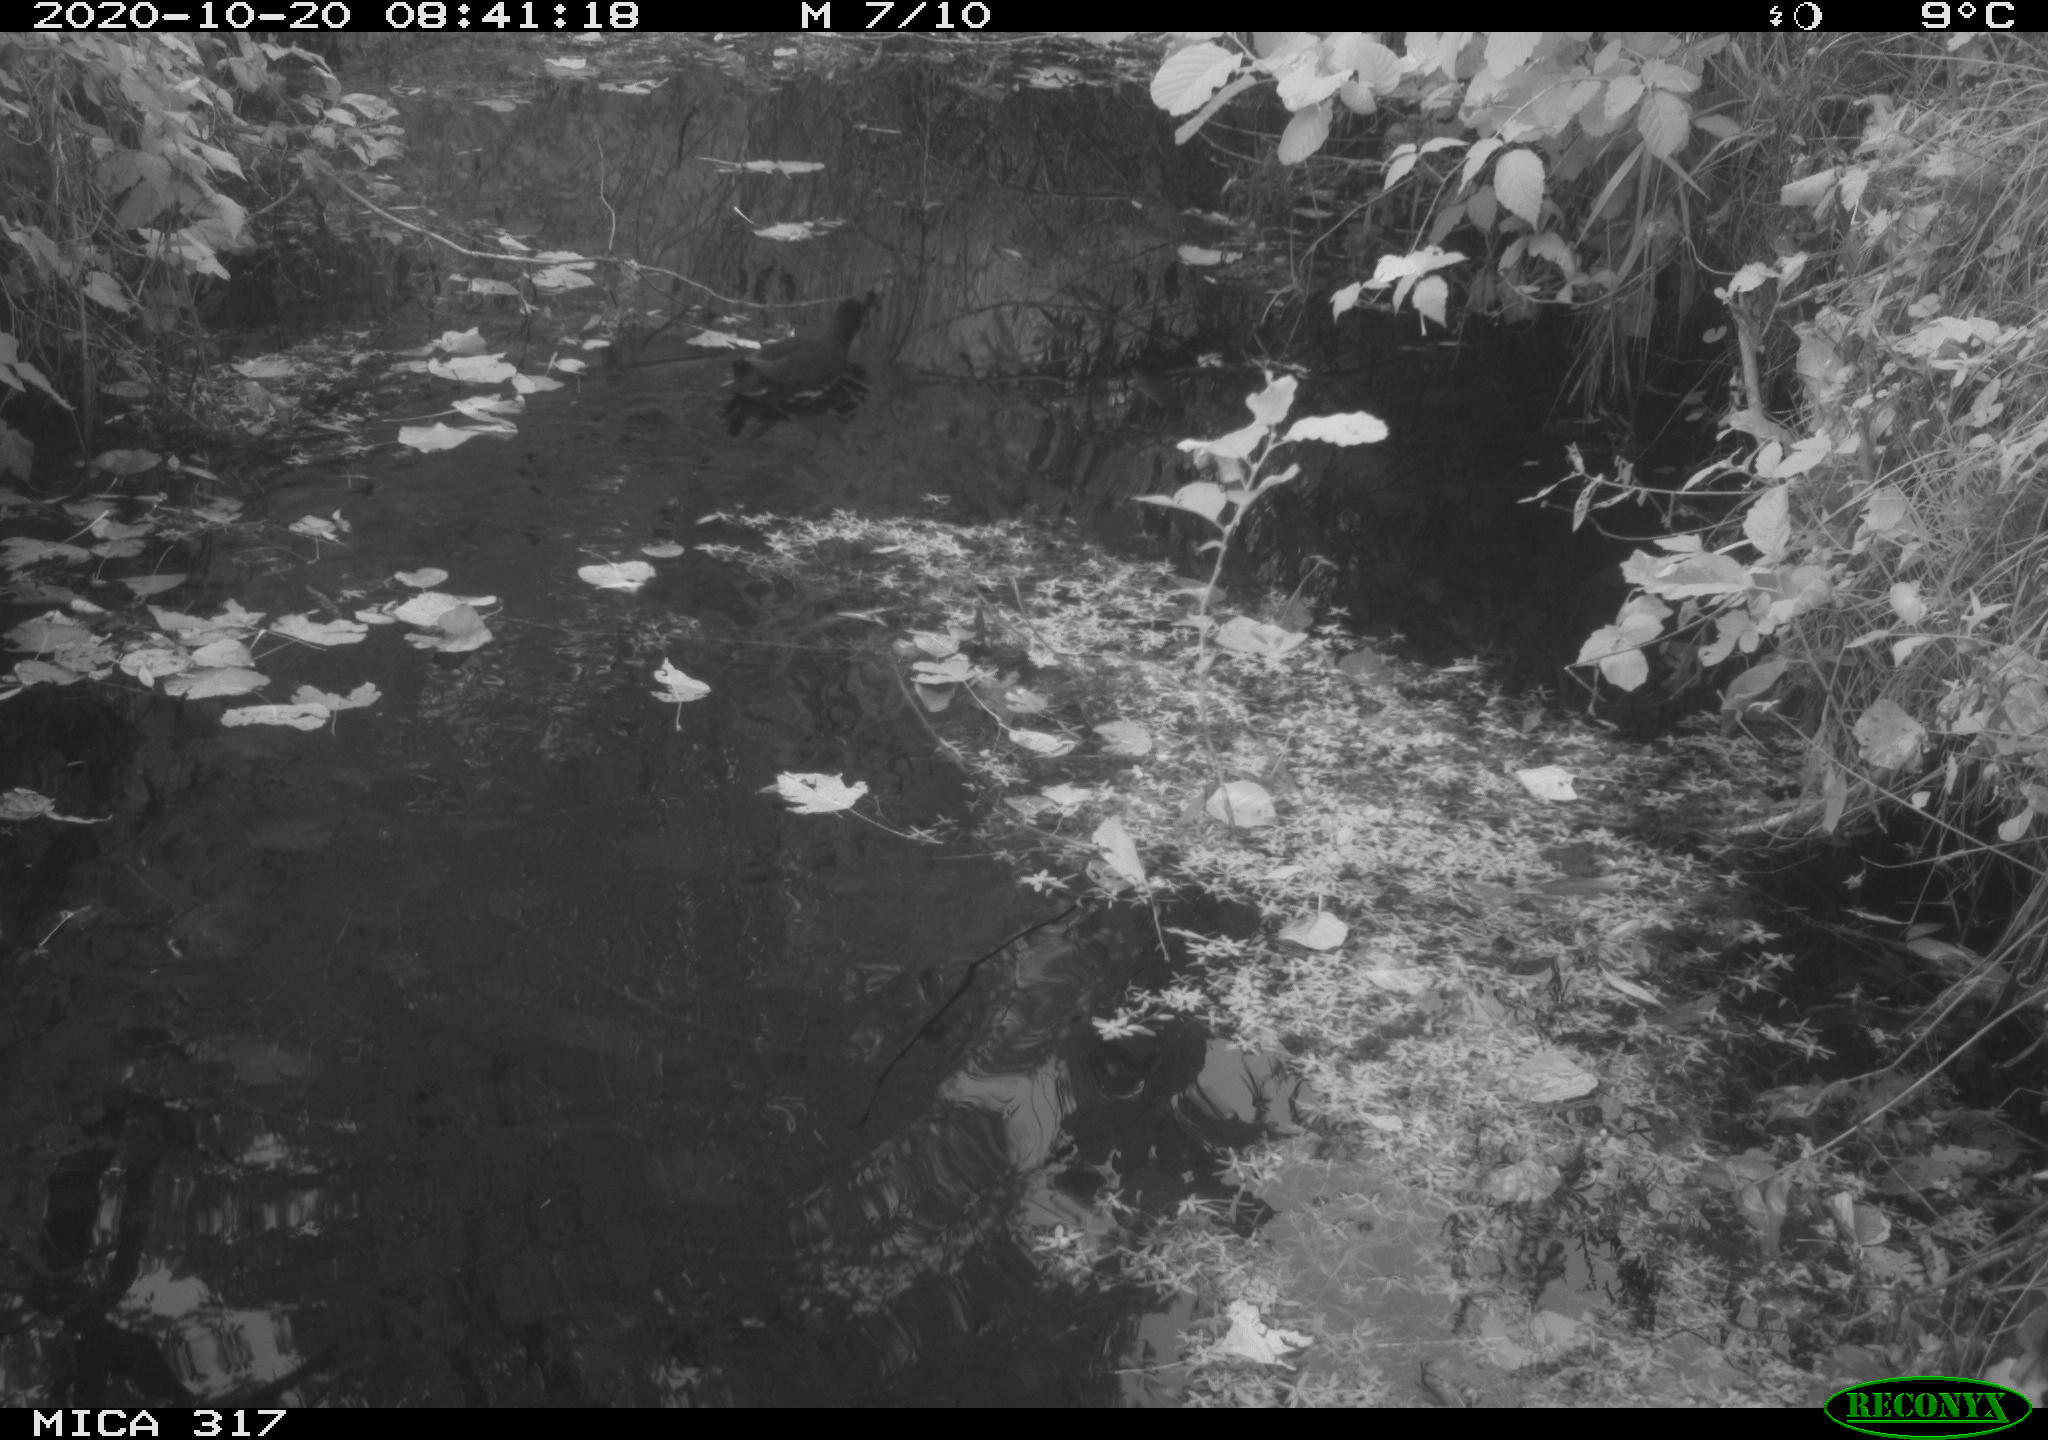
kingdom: Animalia
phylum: Chordata
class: Aves
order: Gruiformes
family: Rallidae
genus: Gallinula
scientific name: Gallinula chloropus
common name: Common moorhen
